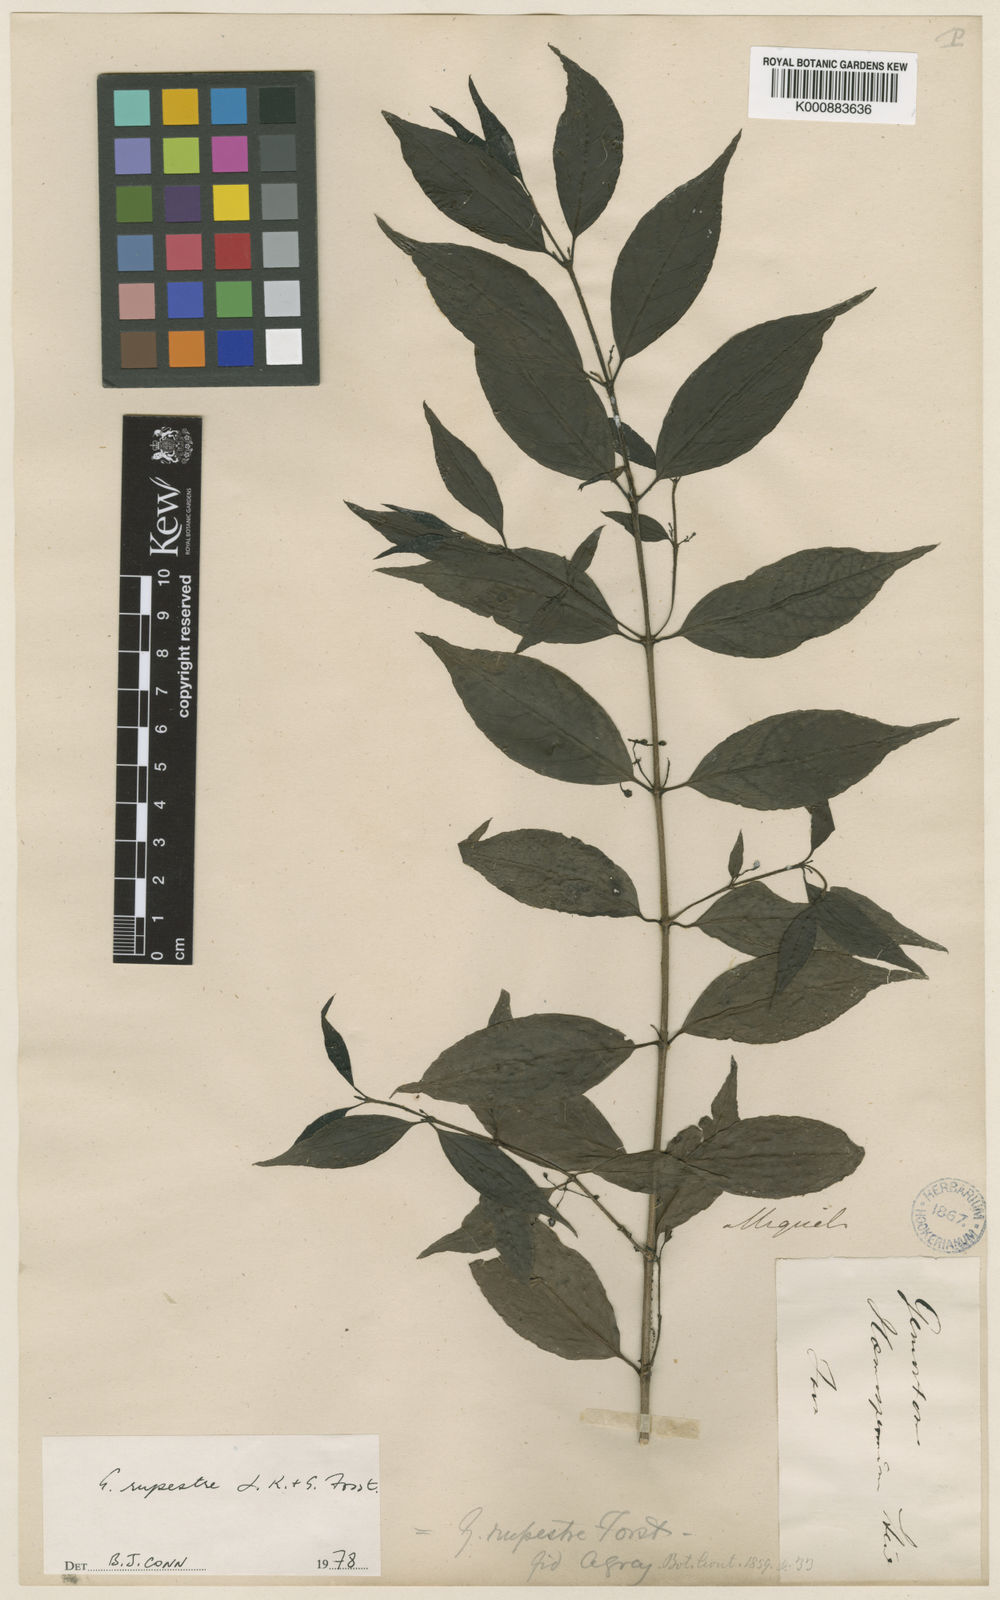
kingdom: Plantae
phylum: Tracheophyta
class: Magnoliopsida
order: Gentianales
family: Loganiaceae
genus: Geniostoma
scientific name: Geniostoma rupestre
